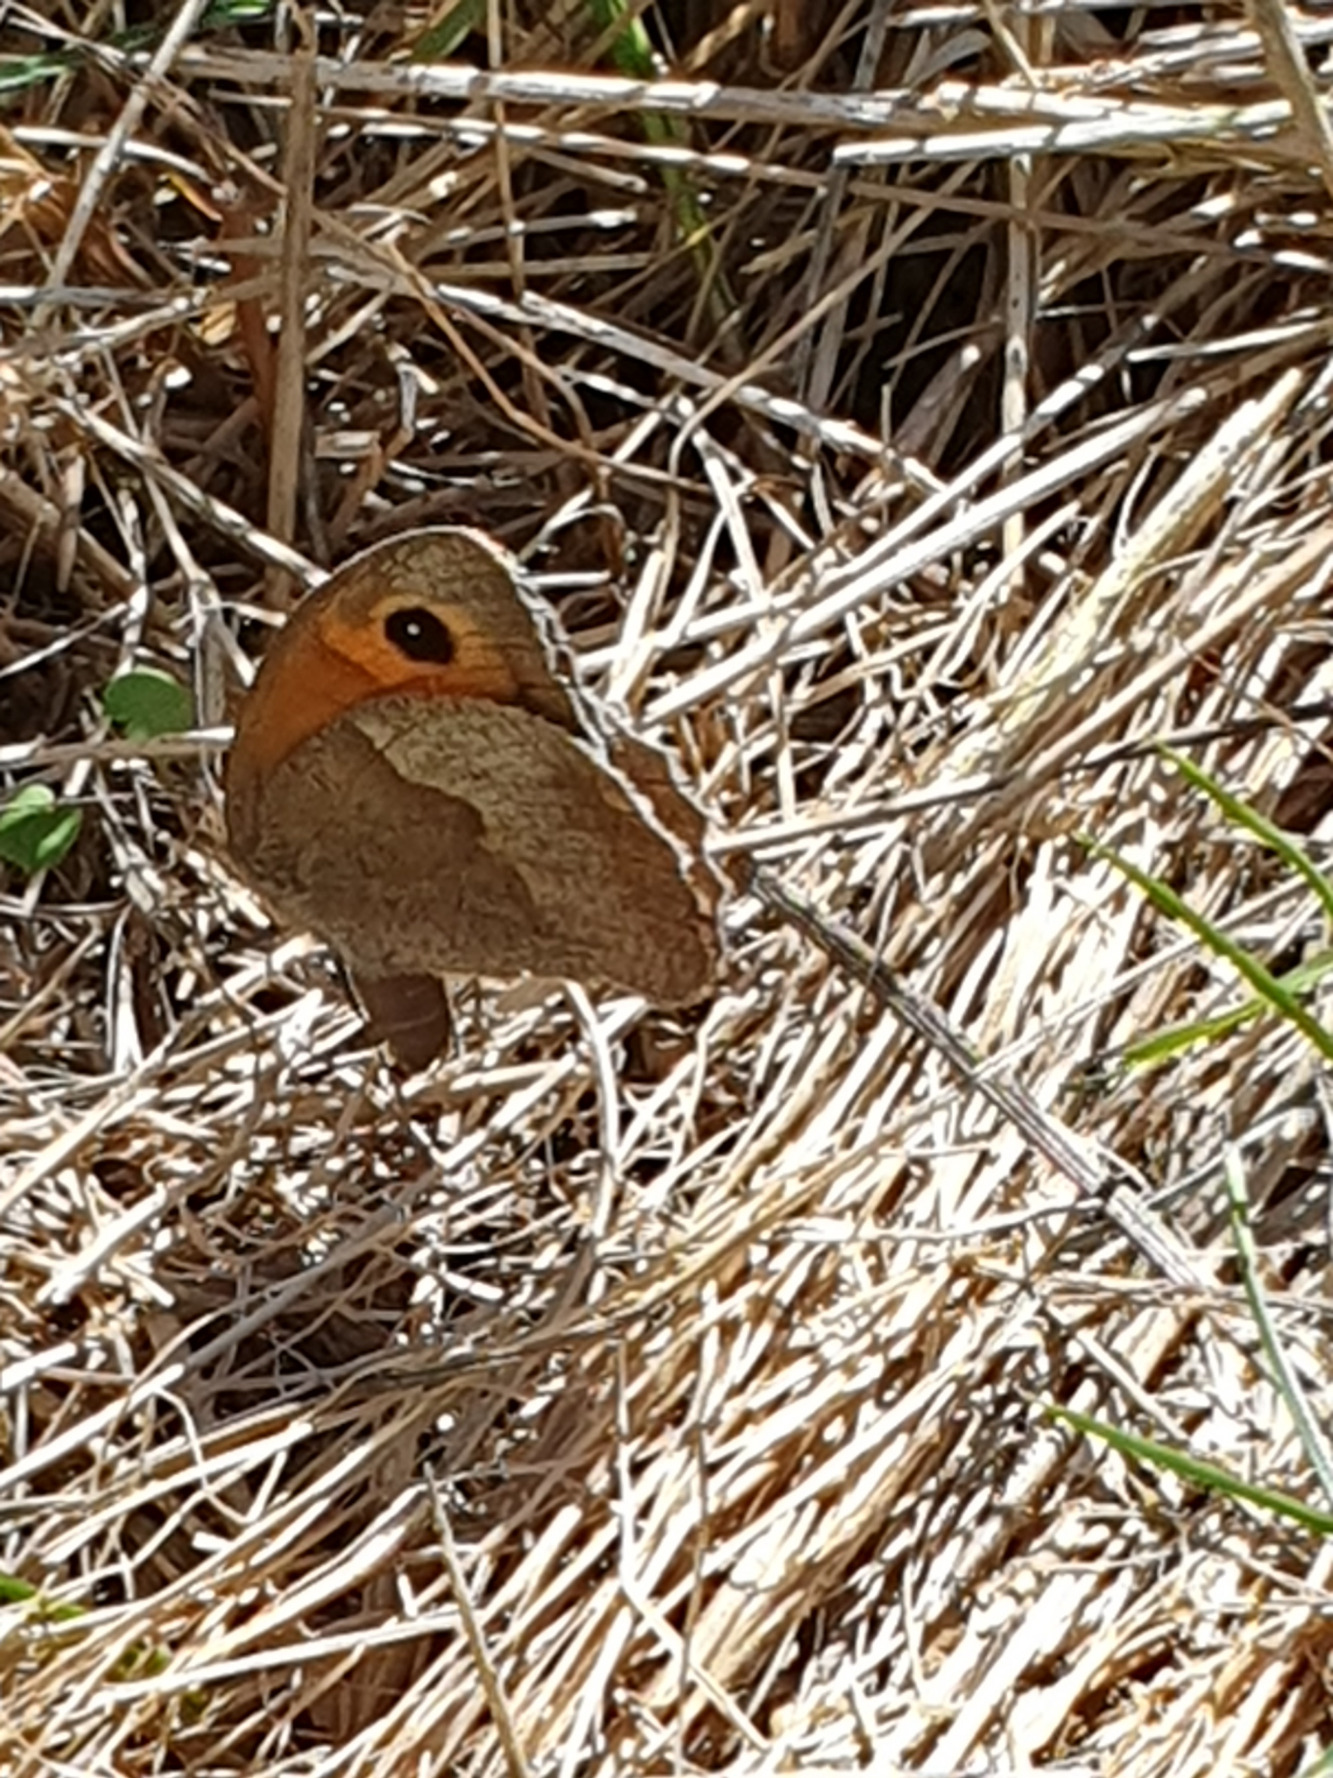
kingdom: Animalia
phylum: Arthropoda
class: Insecta
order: Lepidoptera
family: Nymphalidae
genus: Maniola
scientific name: Maniola jurtina
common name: Græsrandøje
